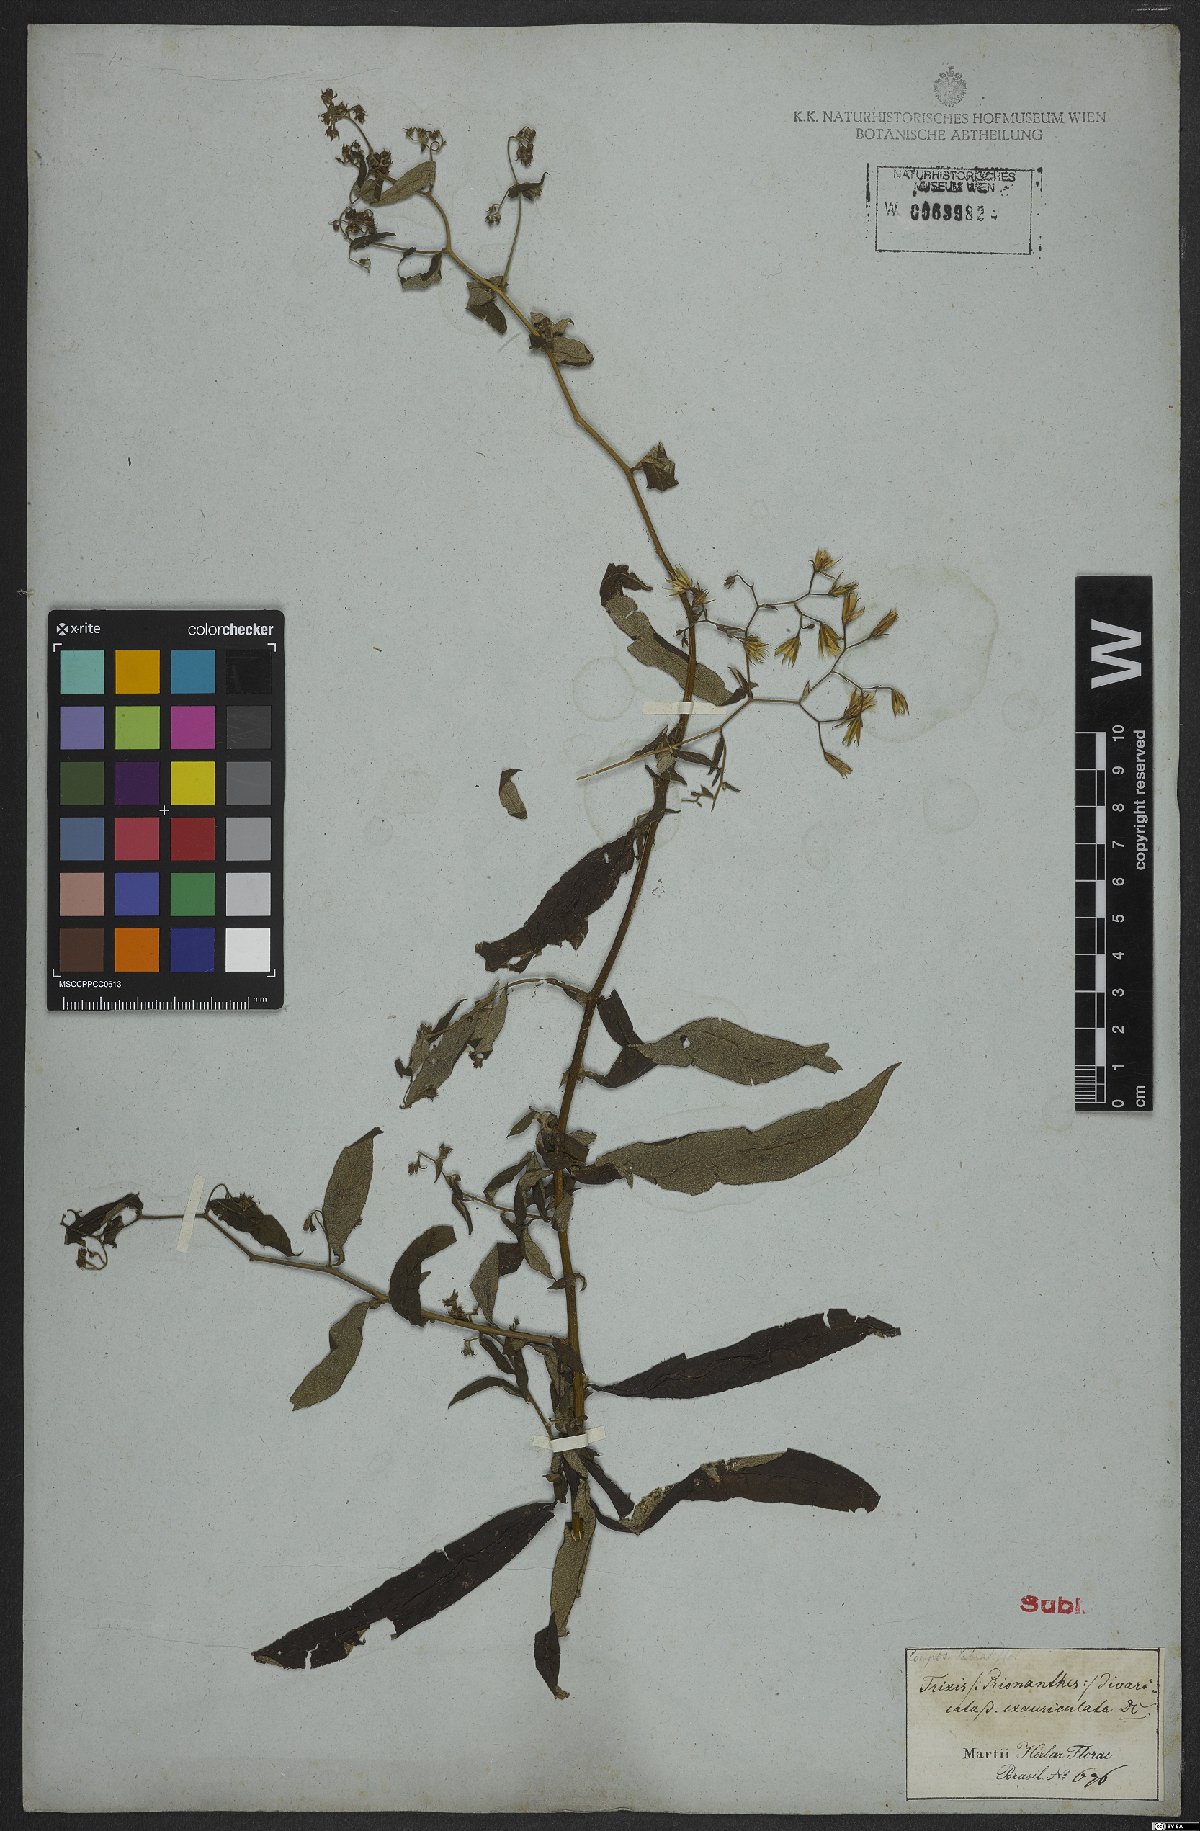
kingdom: Plantae
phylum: Tracheophyta
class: Magnoliopsida
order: Asterales
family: Asteraceae
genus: Trixis
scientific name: Trixis divaricata
